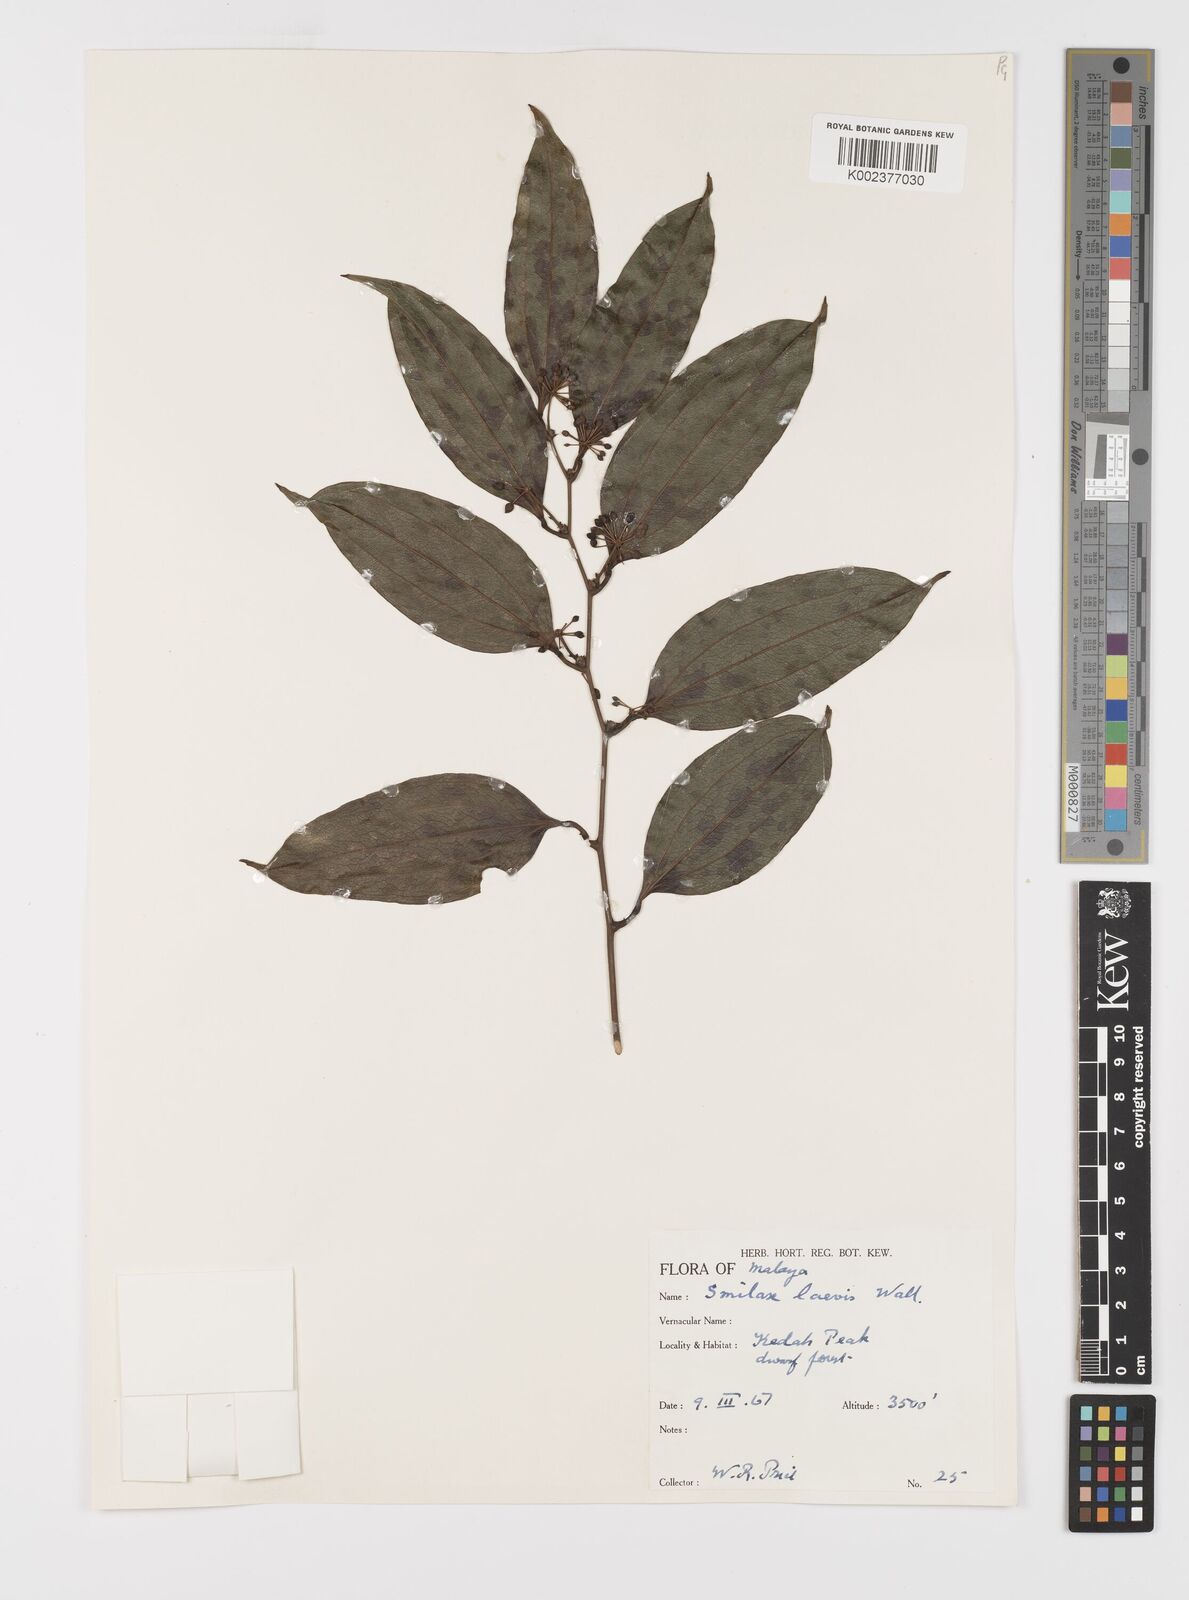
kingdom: Plantae
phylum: Tracheophyta
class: Liliopsida
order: Liliales
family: Smilacaceae
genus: Smilax
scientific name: Smilax laevis
